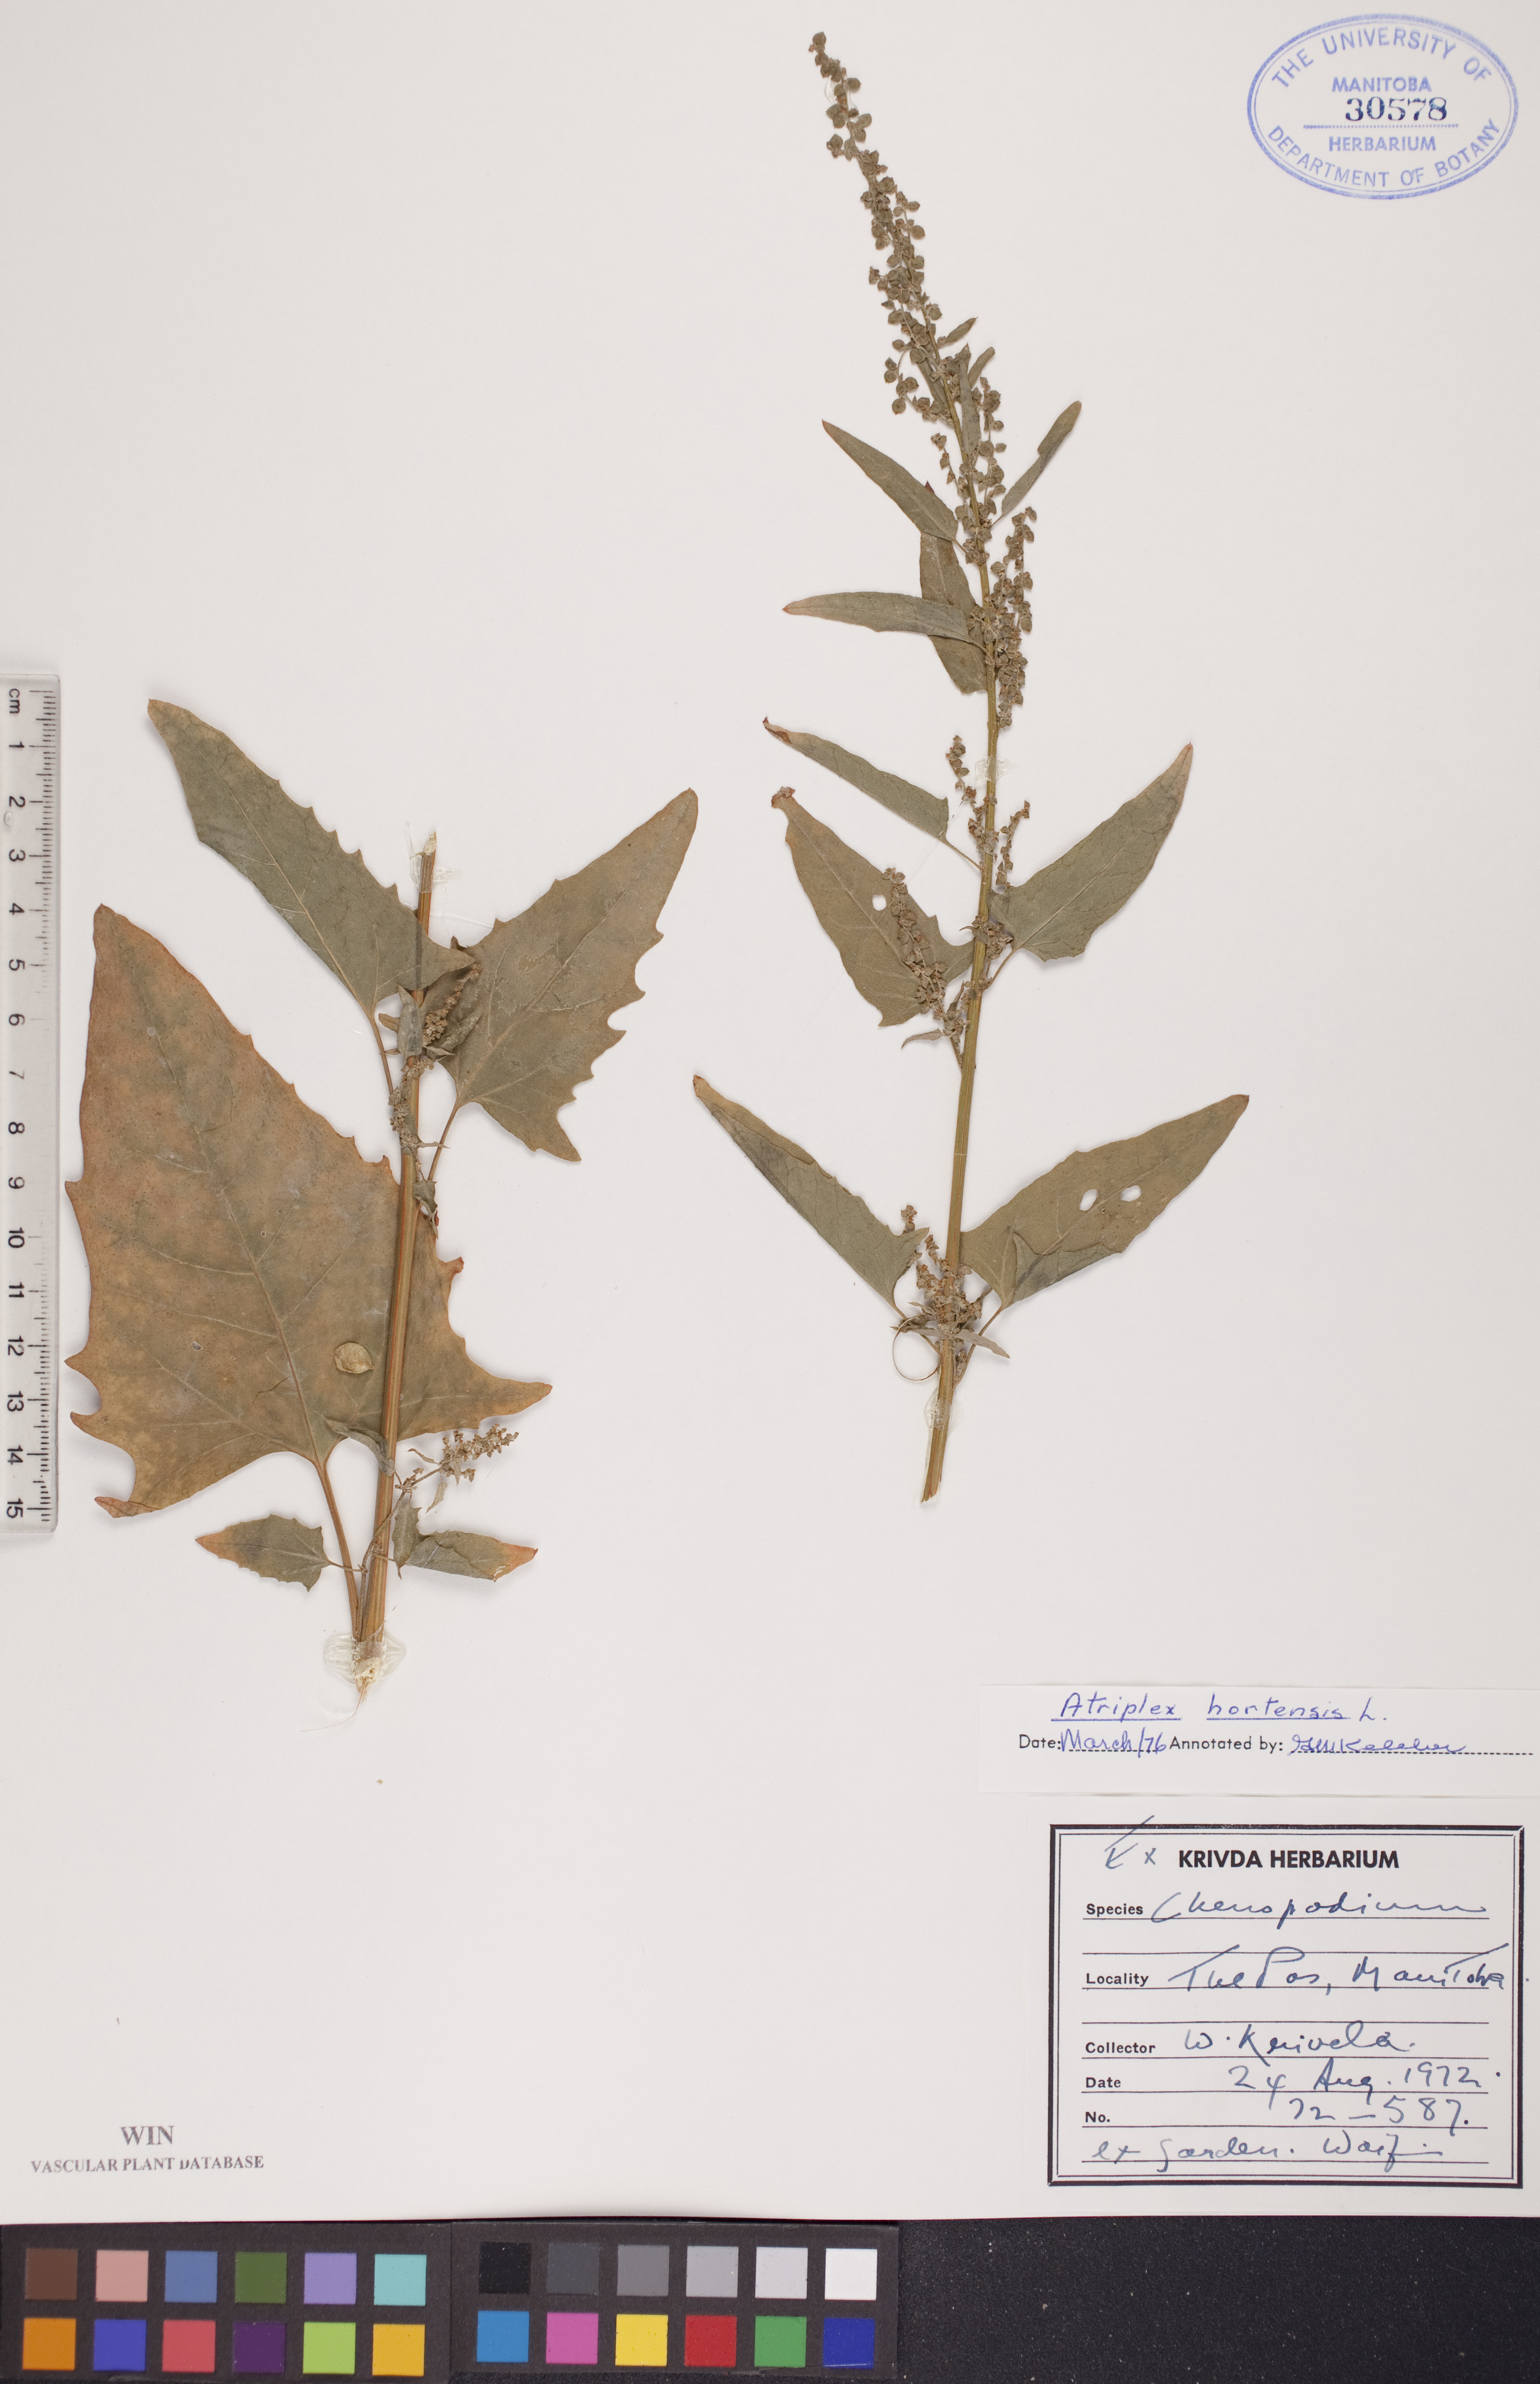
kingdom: Plantae
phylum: Tracheophyta
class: Magnoliopsida
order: Caryophyllales
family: Amaranthaceae
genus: Atriplex
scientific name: Atriplex hortensis
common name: Garden orache
